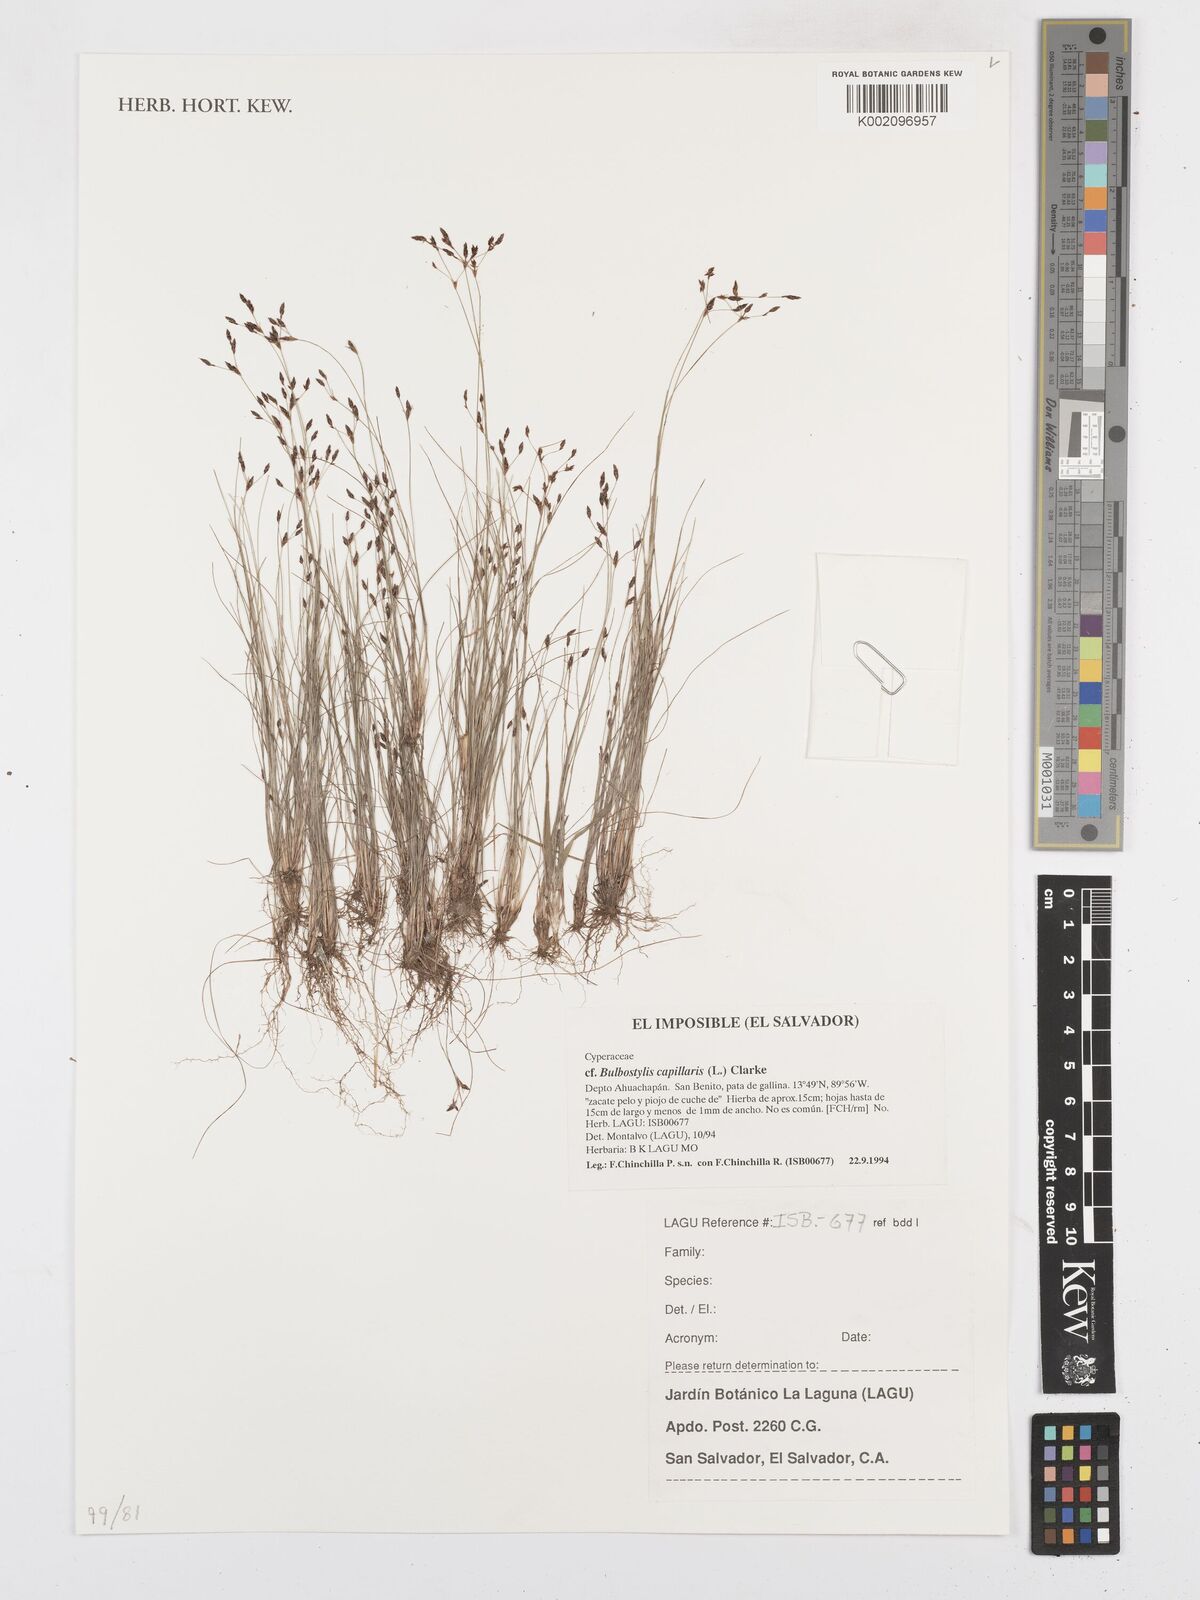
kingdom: Plantae
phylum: Tracheophyta
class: Liliopsida
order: Poales
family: Cyperaceae
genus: Bulbostylis
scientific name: Bulbostylis capillaris
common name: Densetuft hairsedge
